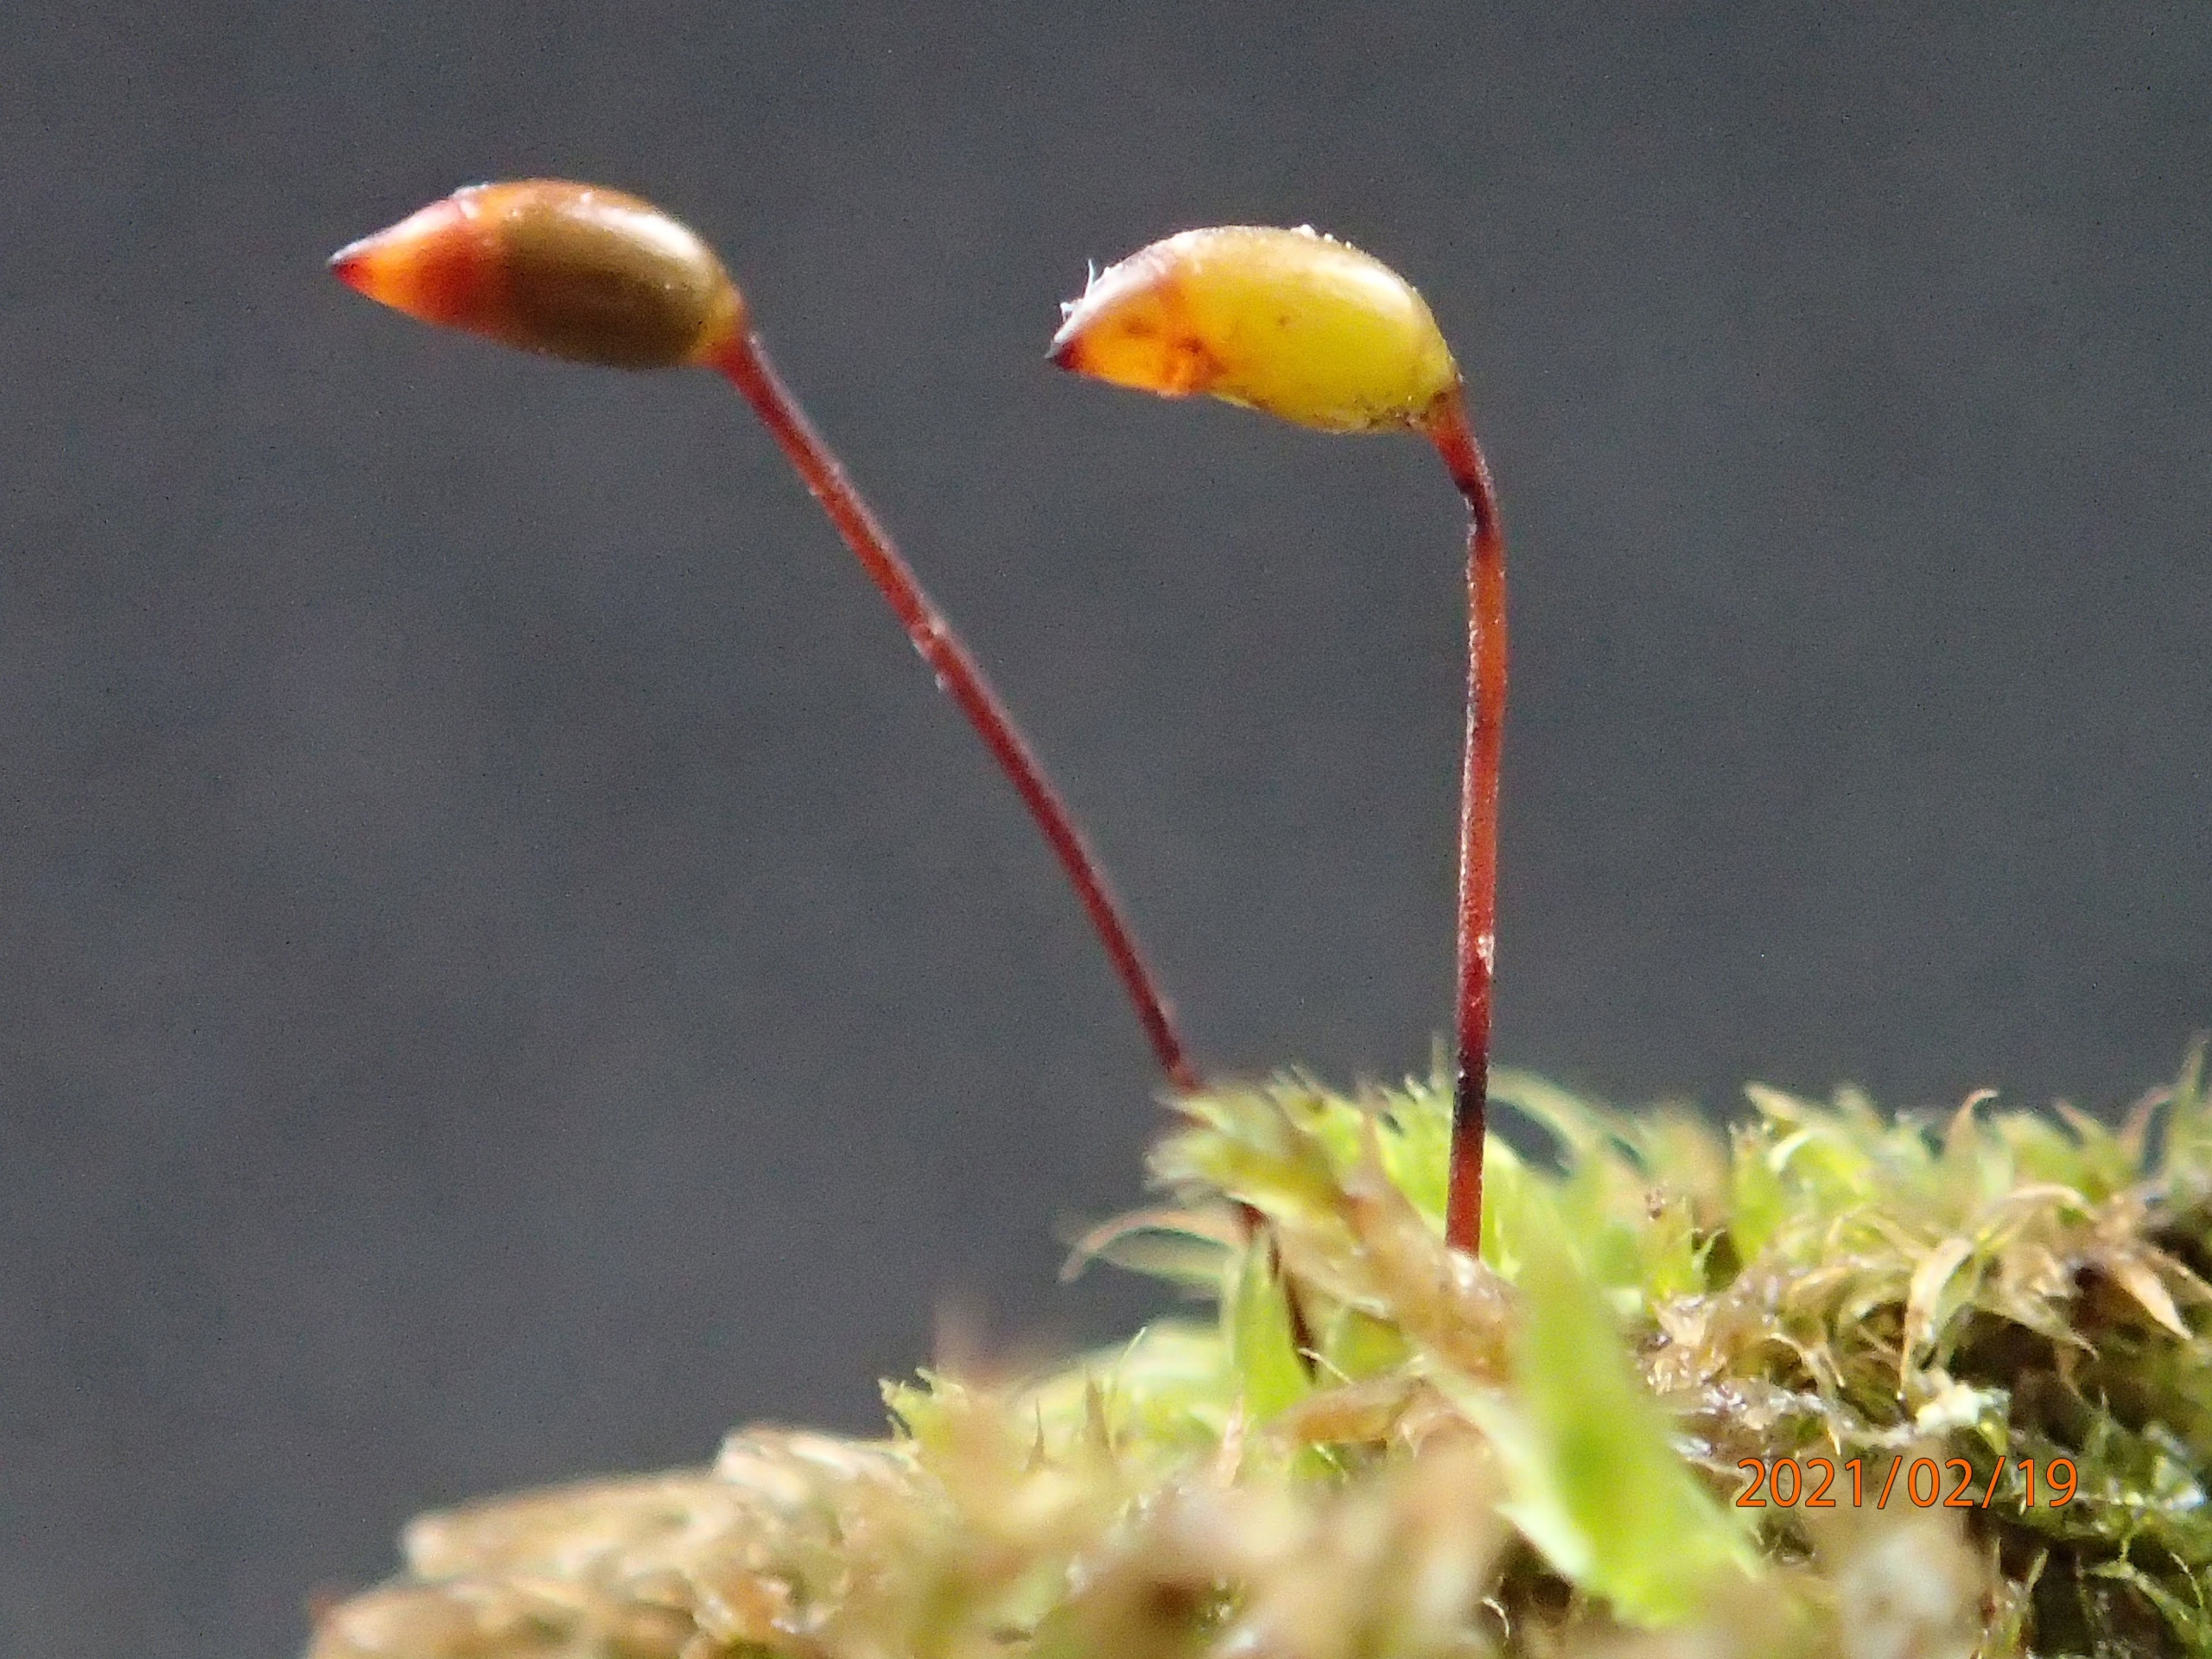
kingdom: Plantae
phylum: Bryophyta
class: Bryopsida
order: Hypnales
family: Brachytheciaceae
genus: Brachytheciastrum
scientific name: Brachytheciastrum velutinum
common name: Fløjls-kortkapsel
